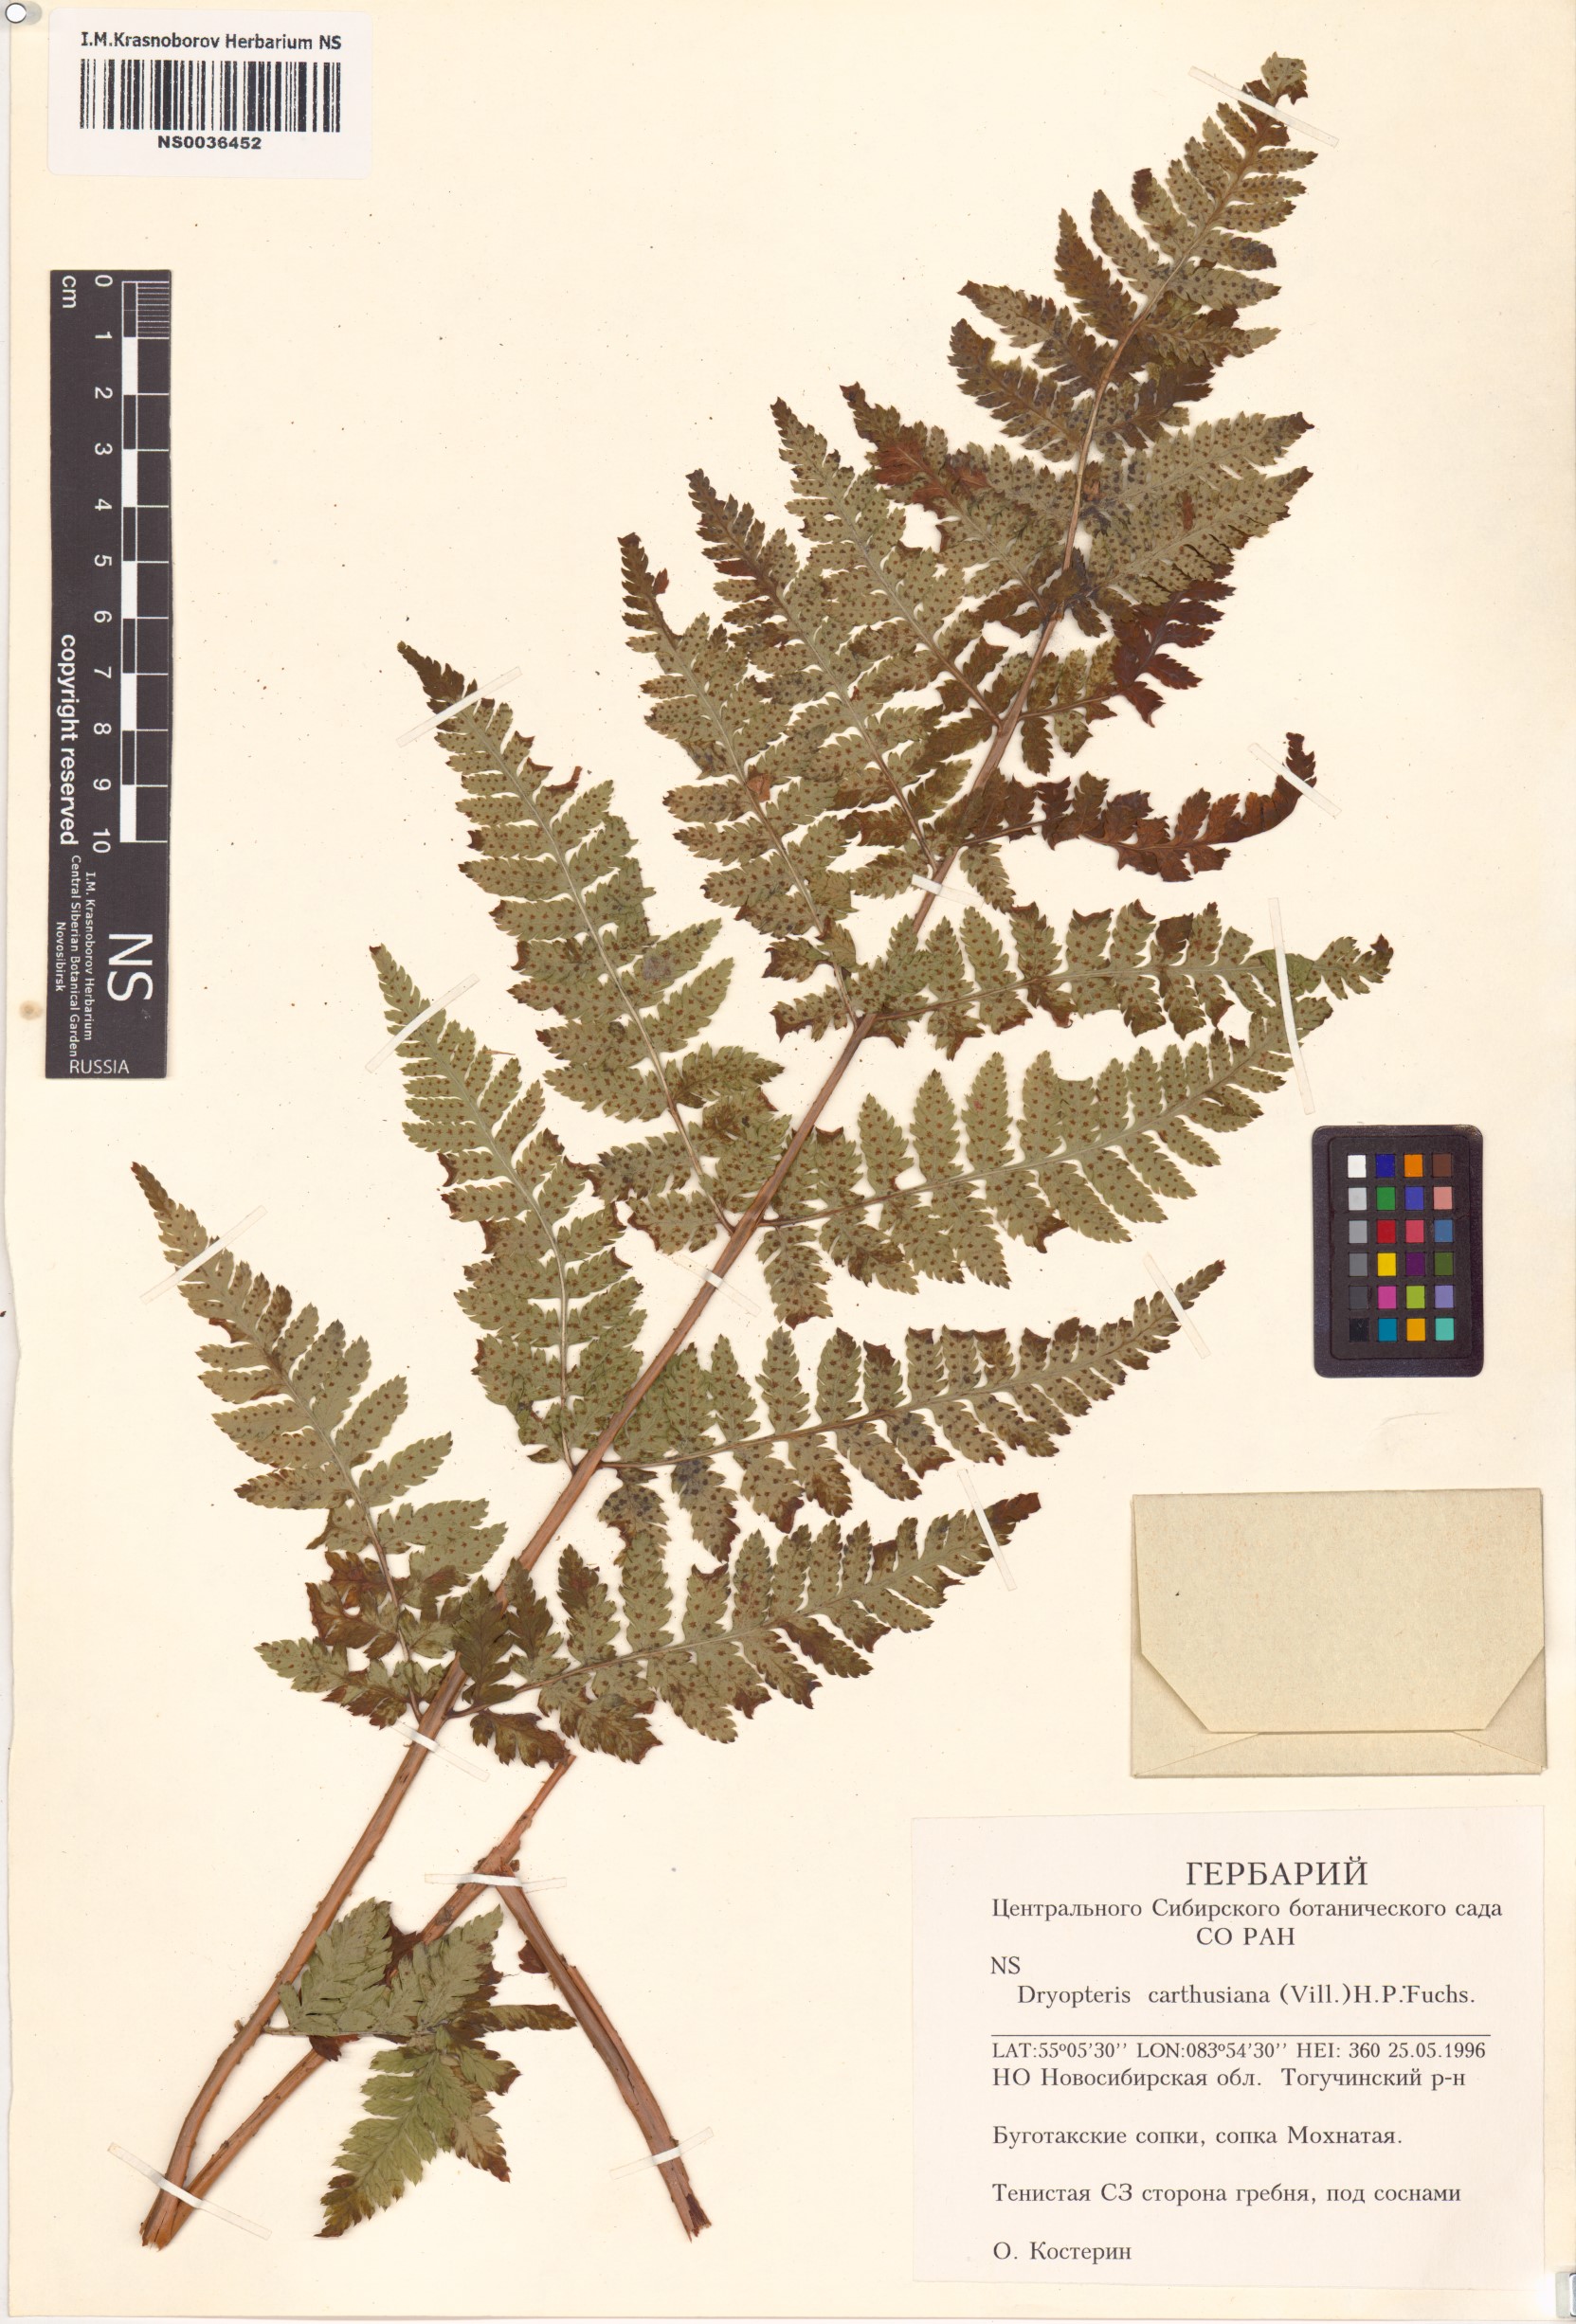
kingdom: Plantae
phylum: Tracheophyta
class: Polypodiopsida
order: Polypodiales
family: Dryopteridaceae
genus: Dryopteris
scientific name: Dryopteris carthusiana
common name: Narrow buckler-fern
